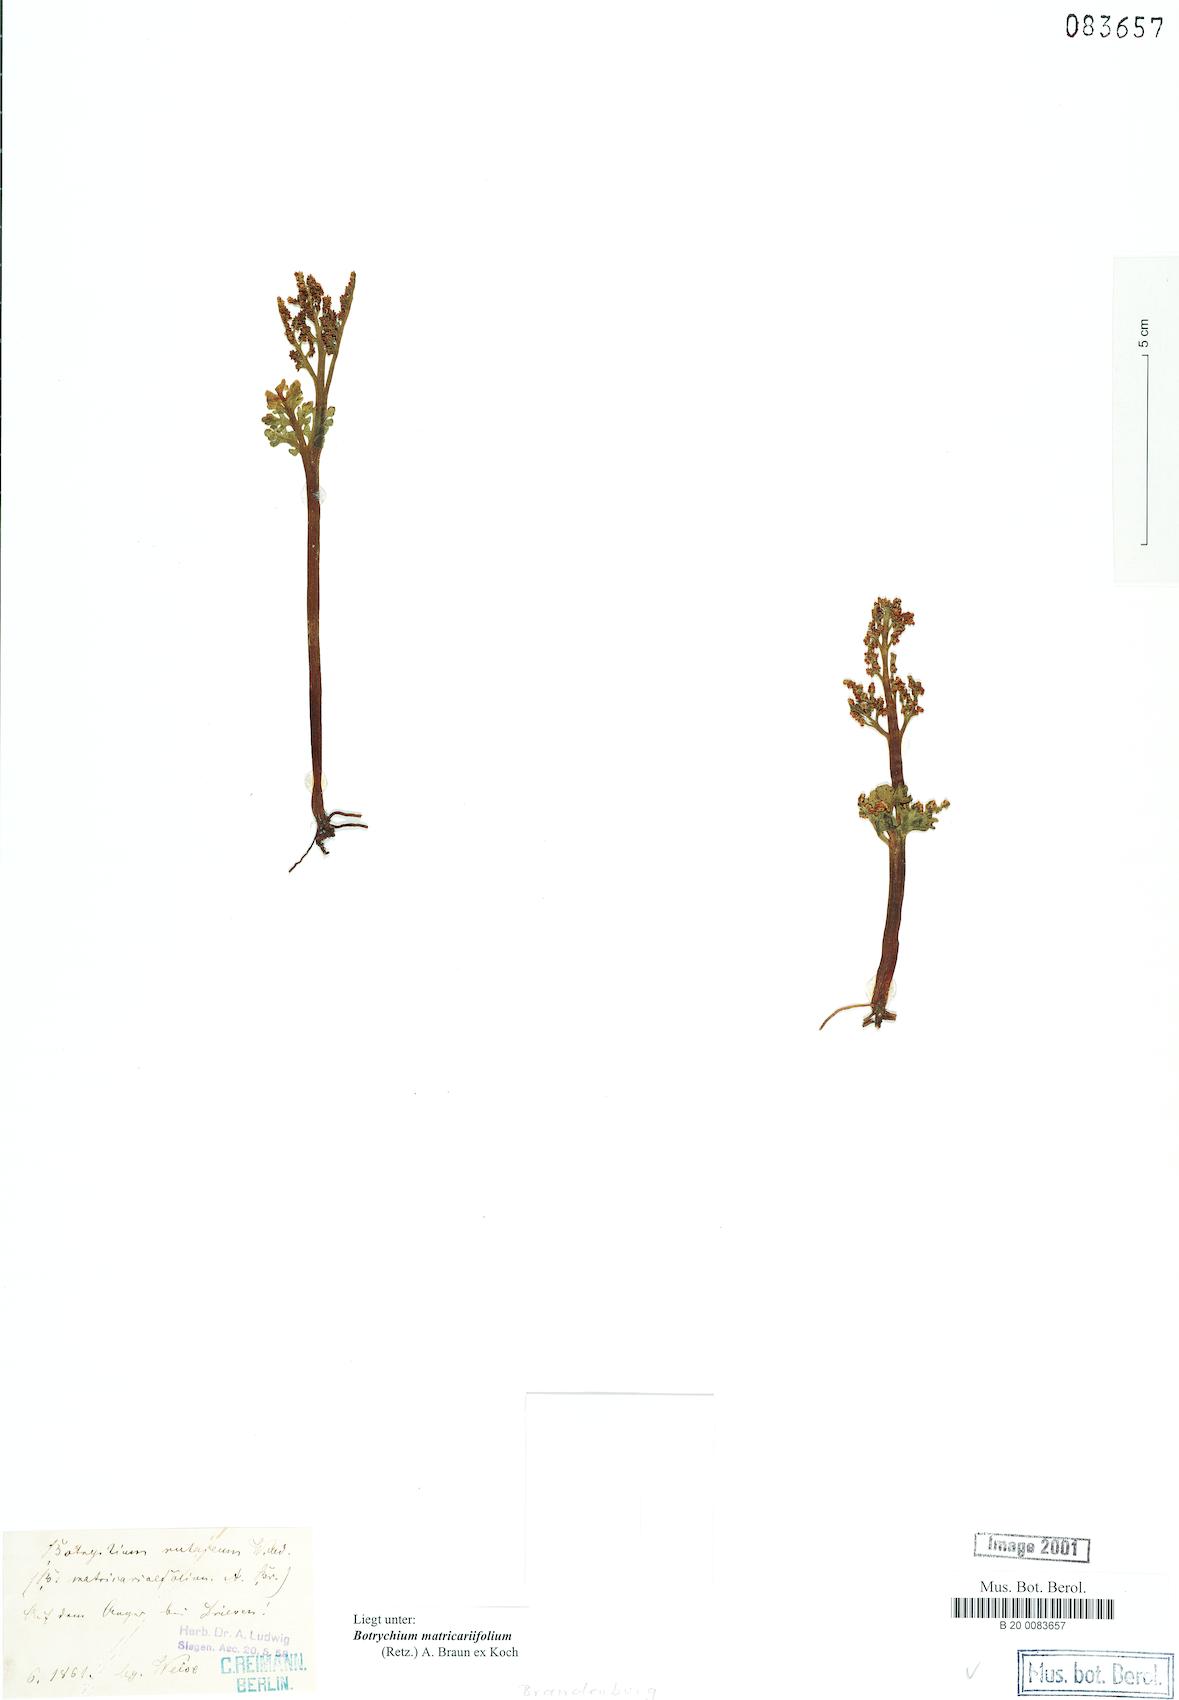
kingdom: Plantae
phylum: Tracheophyta
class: Polypodiopsida
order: Ophioglossales
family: Ophioglossaceae
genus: Botrychium
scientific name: Botrychium matricariifolium
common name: Branched moonwort
